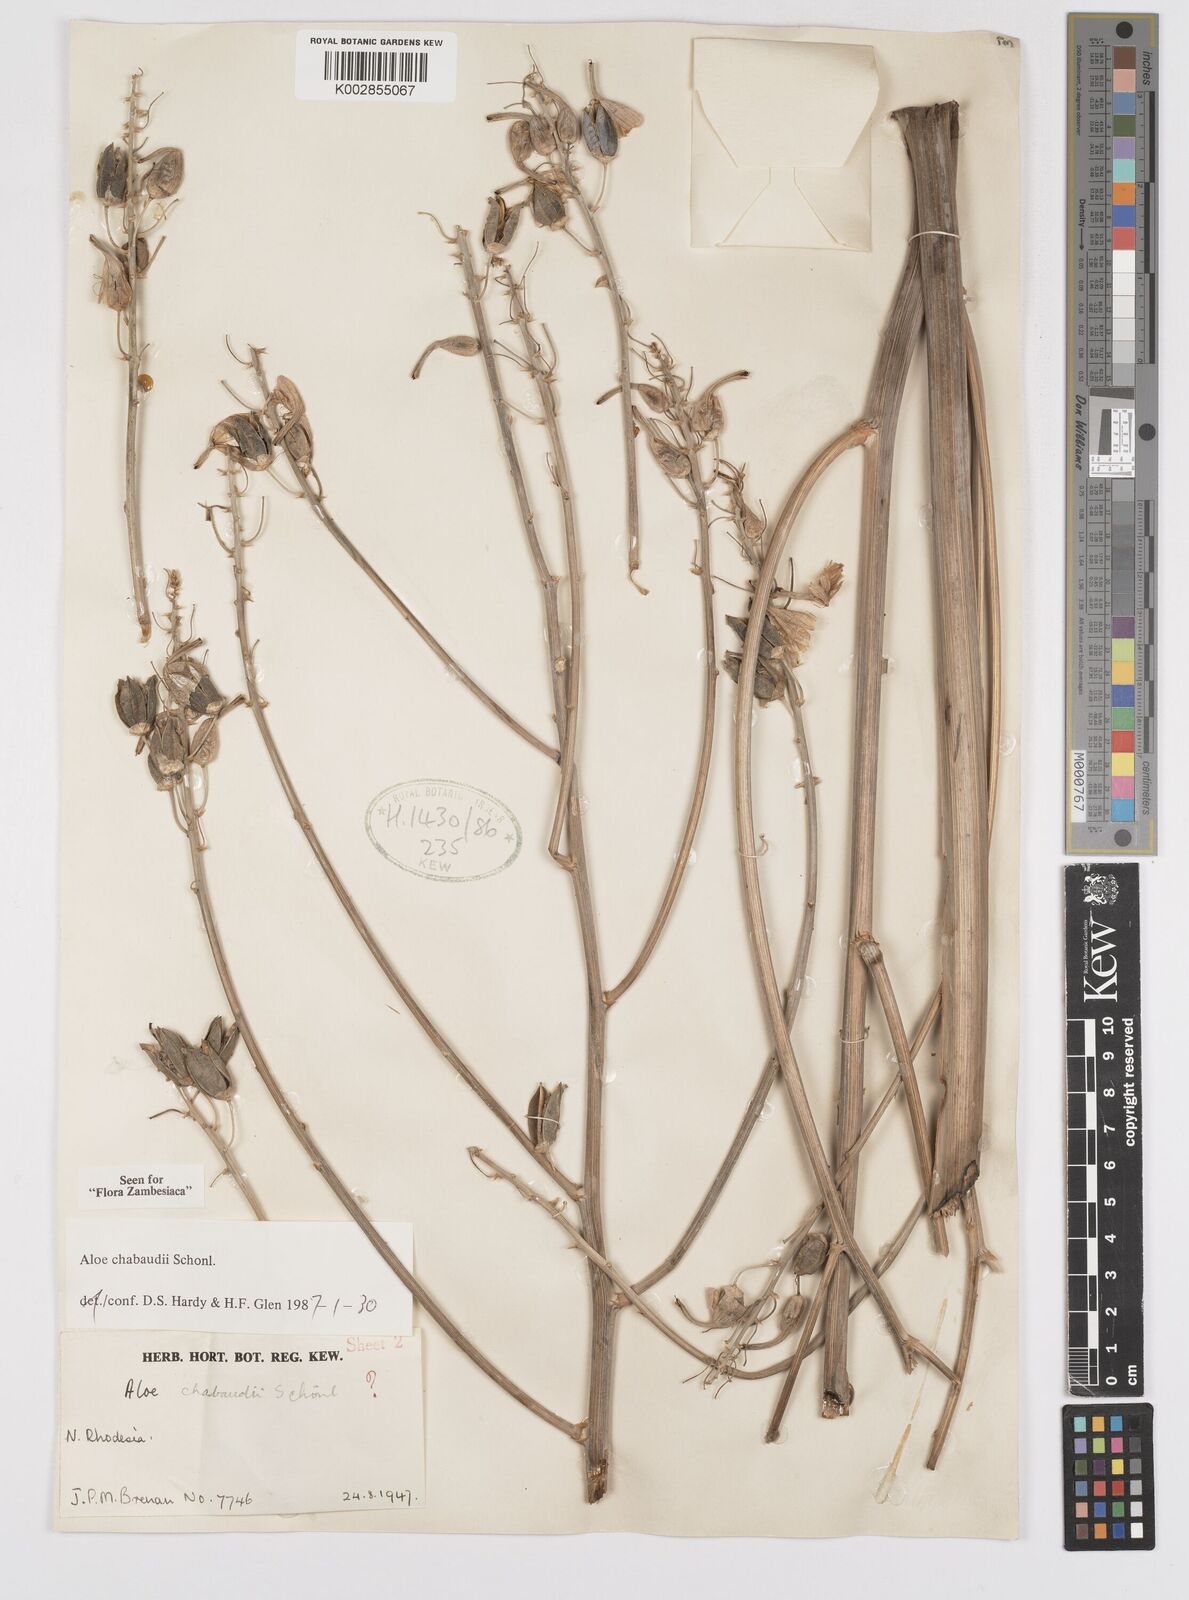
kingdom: Plantae
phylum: Tracheophyta
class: Liliopsida
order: Asparagales
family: Asphodelaceae
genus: Aloe
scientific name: Aloe chabaudii
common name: Chabaud's aloe
